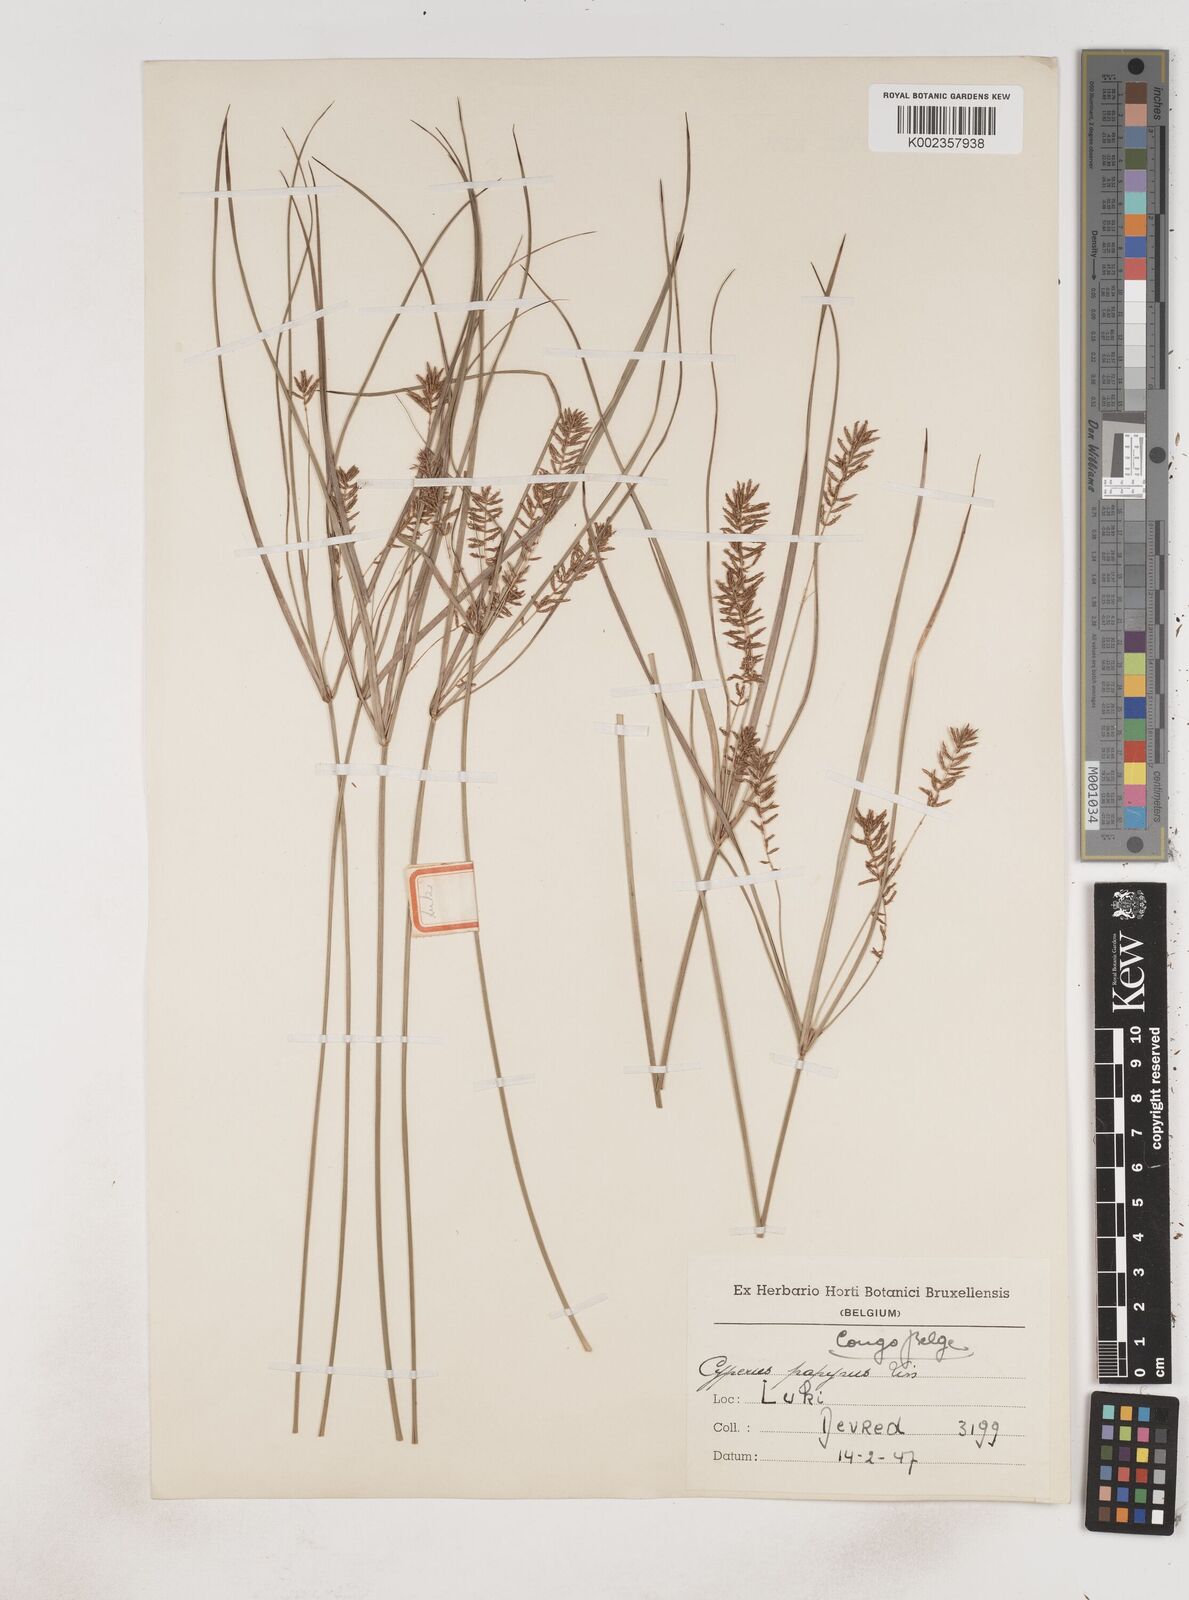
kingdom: Plantae
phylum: Tracheophyta
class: Liliopsida
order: Poales
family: Cyperaceae
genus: Cyperus
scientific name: Cyperus papyrus
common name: Papyrus
